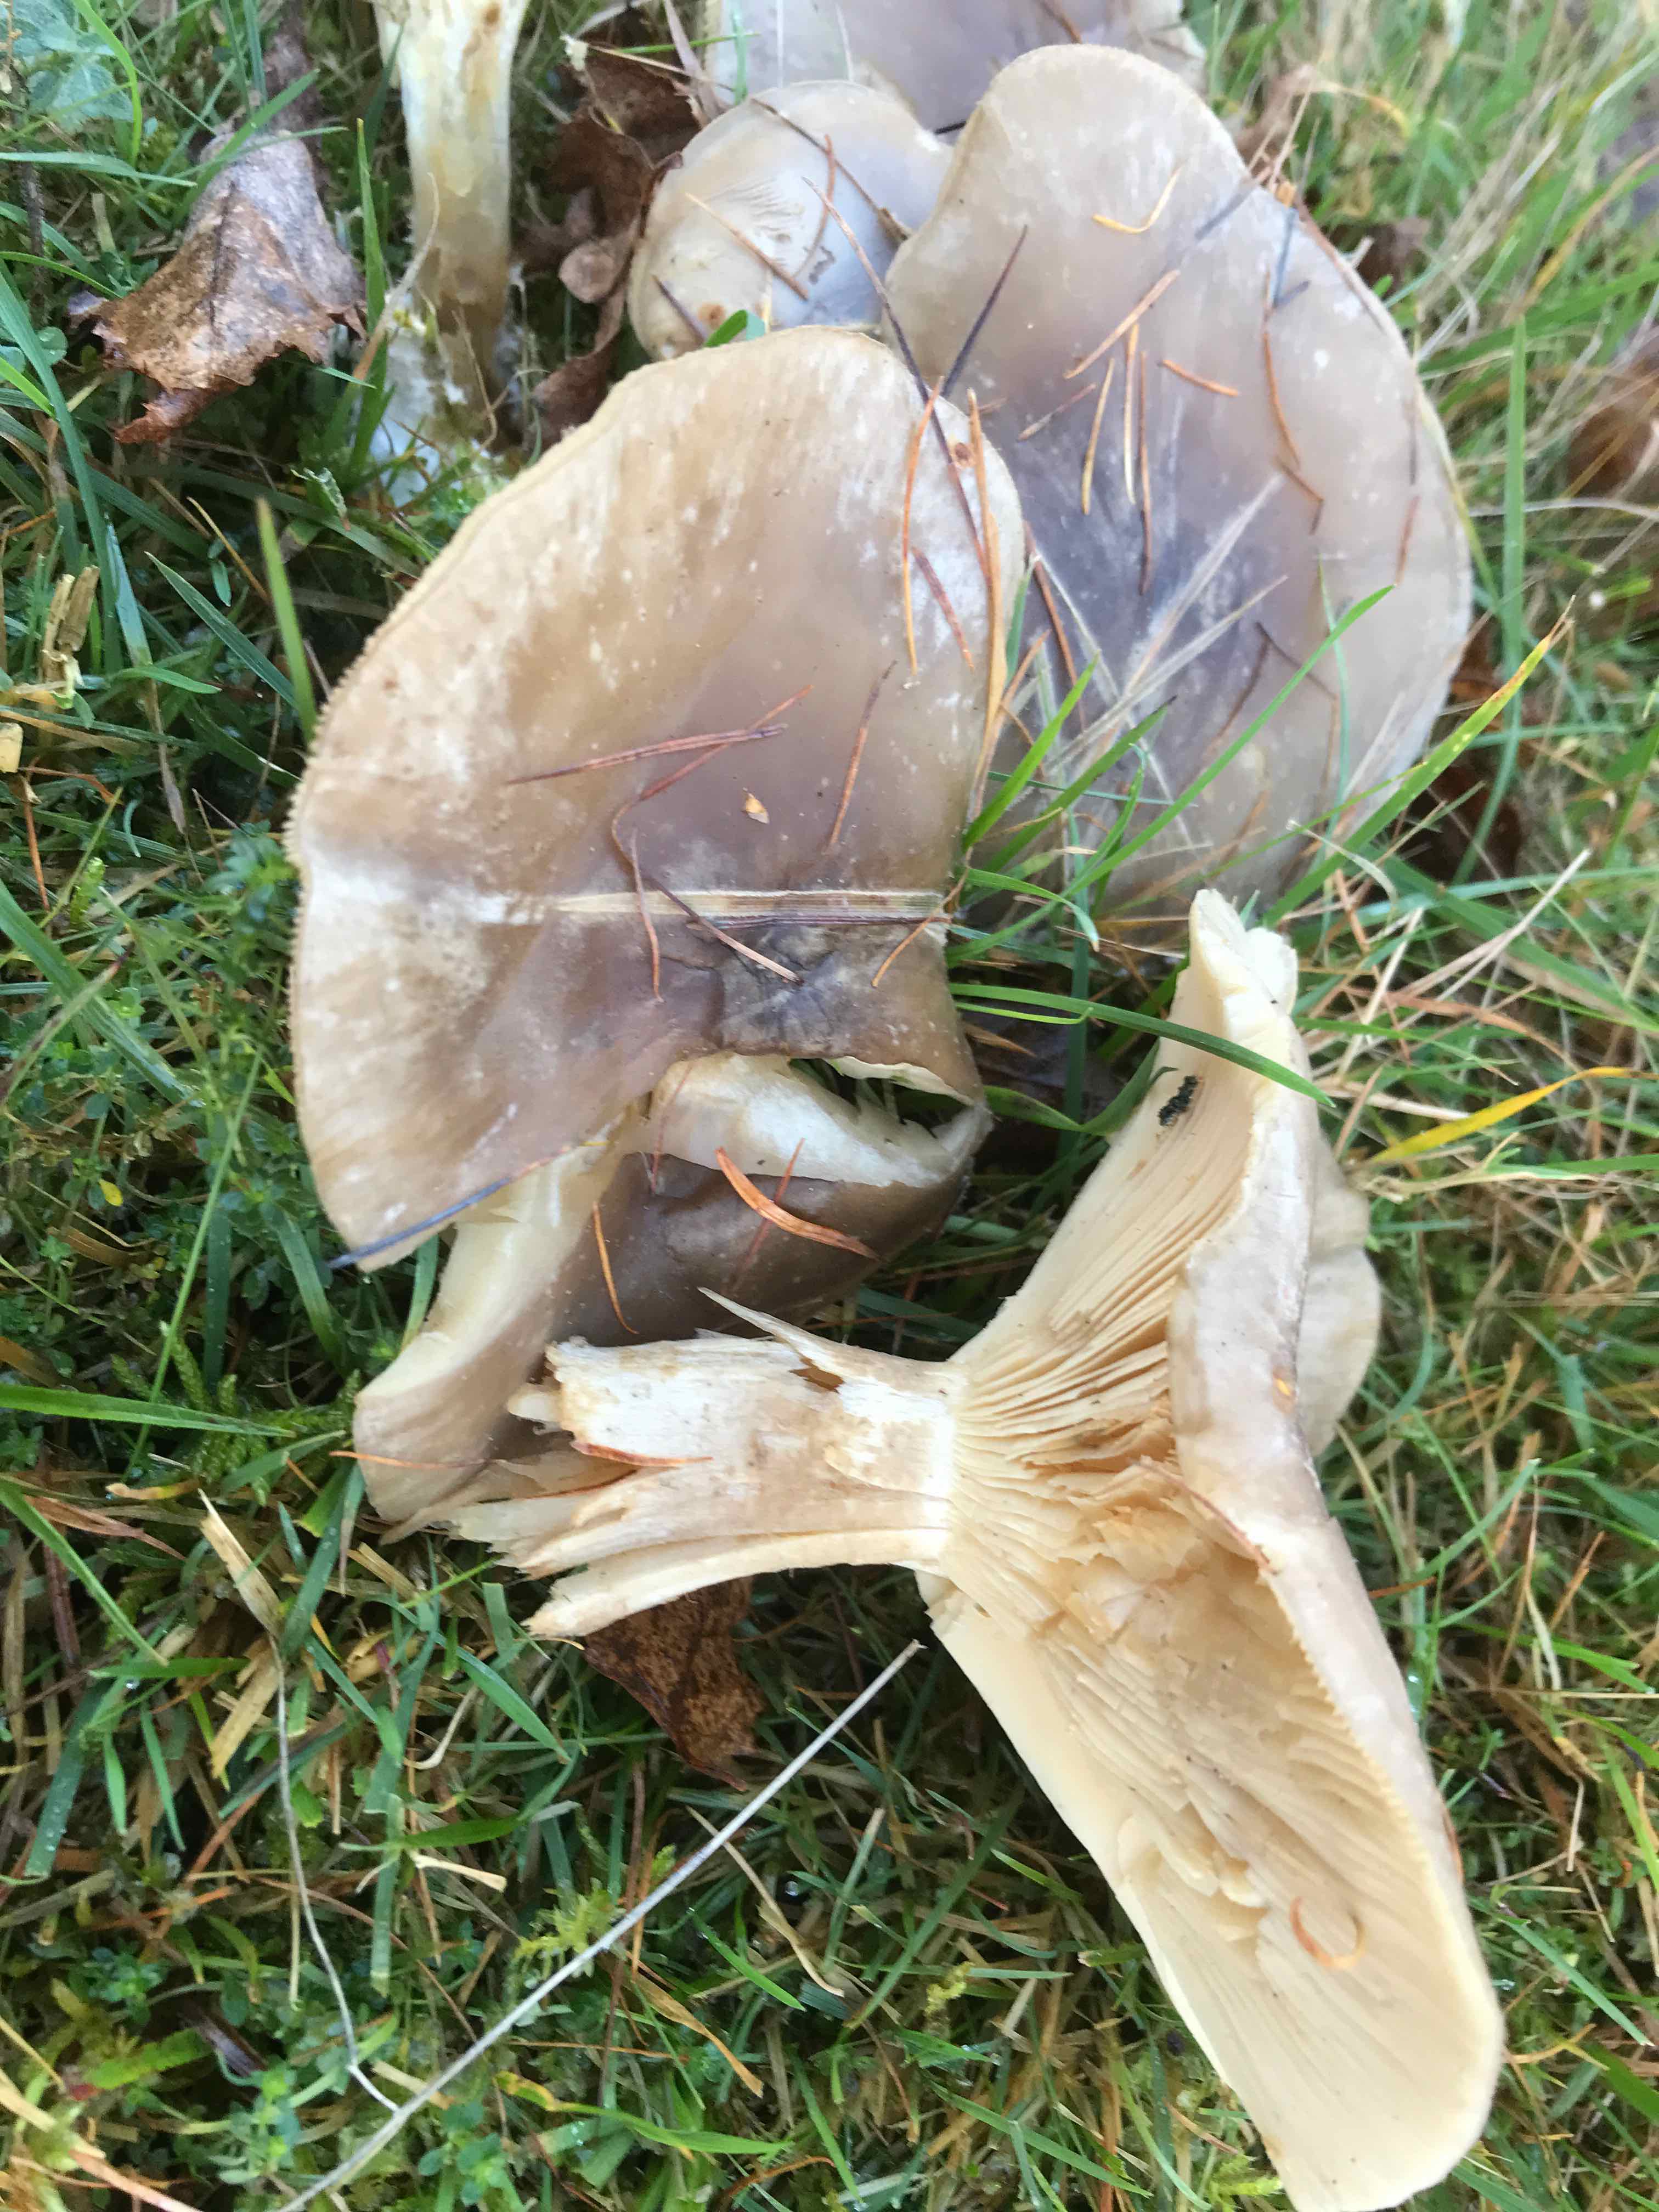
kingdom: Fungi
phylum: Basidiomycota
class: Agaricomycetes
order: Agaricales
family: Tricholomataceae
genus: Clitocybe
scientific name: Clitocybe nebularis
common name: tåge-tragthat
